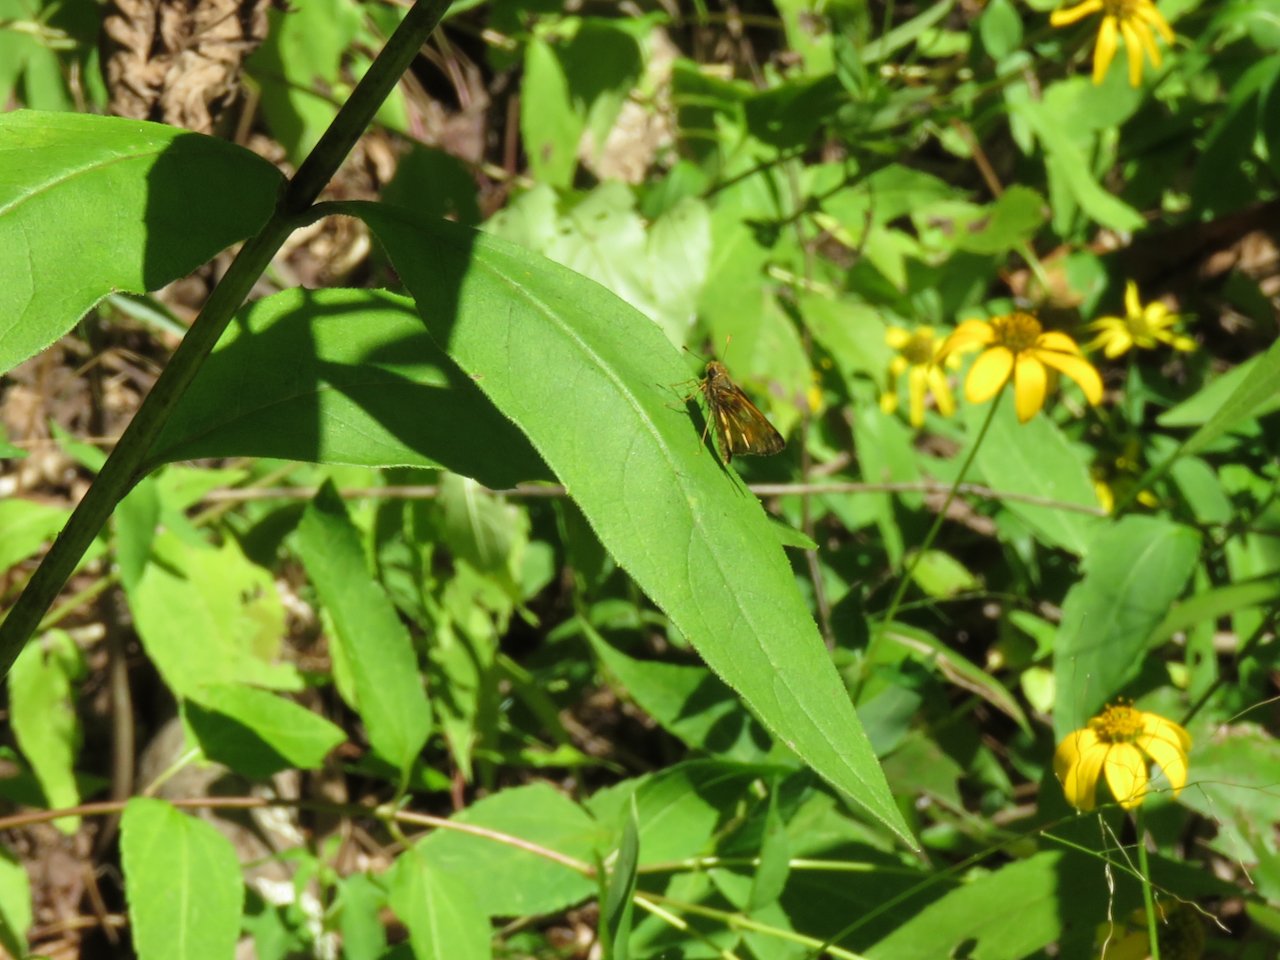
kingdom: Animalia
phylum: Arthropoda
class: Insecta
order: Lepidoptera
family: Hesperiidae
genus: Lon
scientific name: Lon zabulon
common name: Zabulon Skipper
